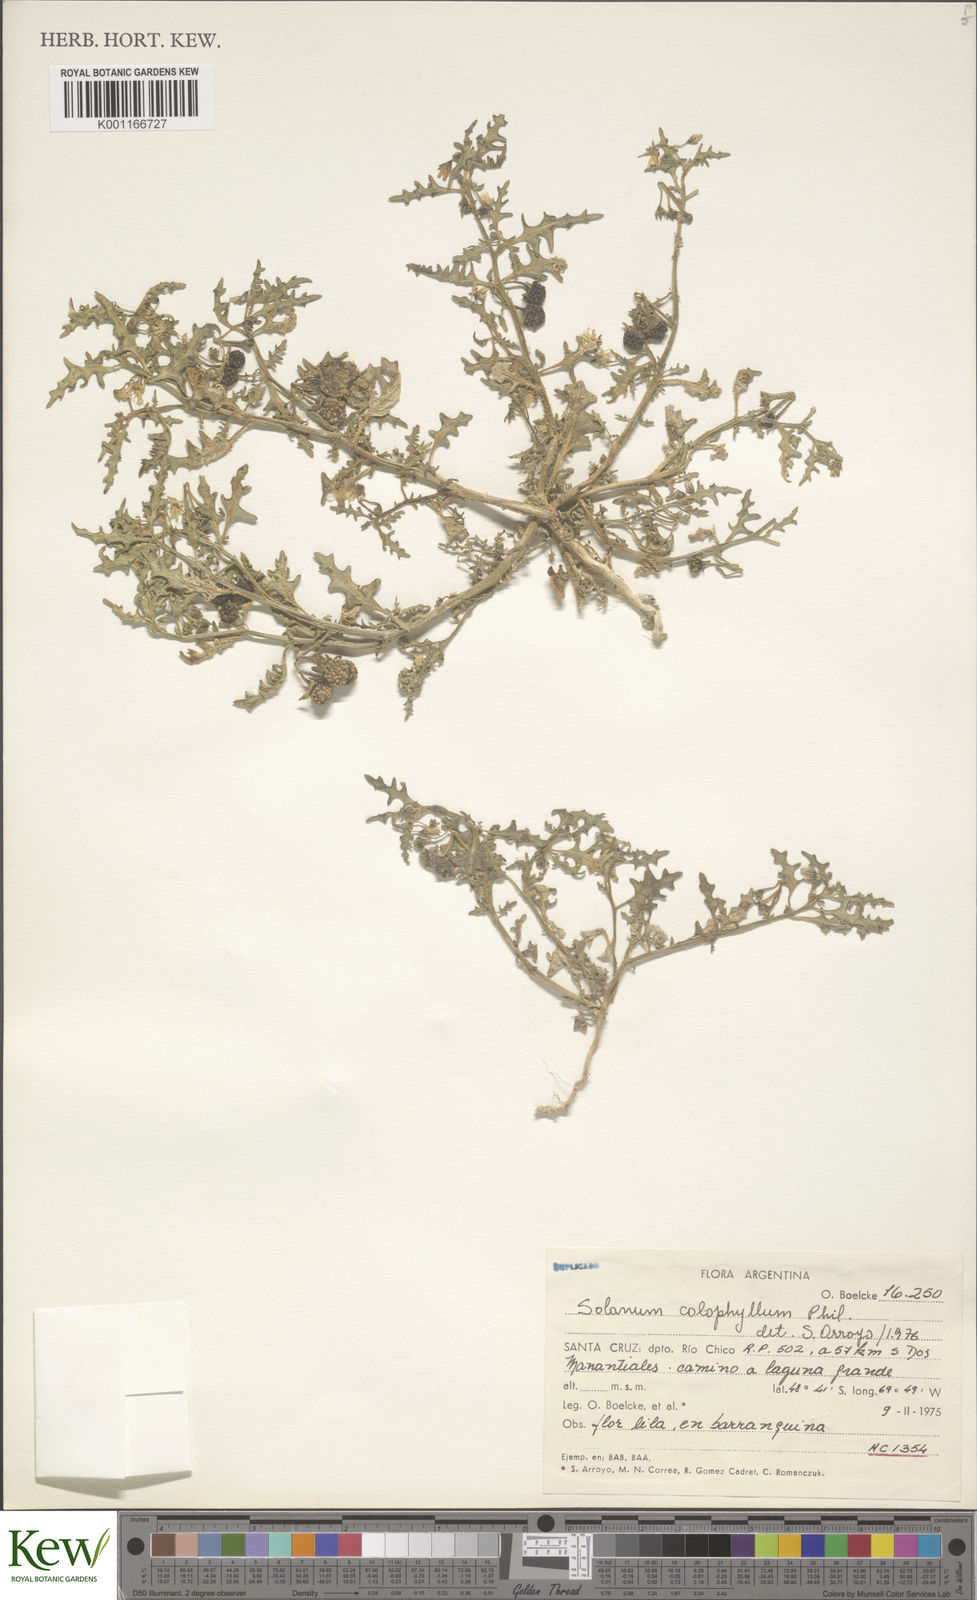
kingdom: Plantae
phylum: Tracheophyta
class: Magnoliopsida
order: Solanales
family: Solanaceae
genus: Solanum
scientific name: Solanum triflorum
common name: Small nightshade
